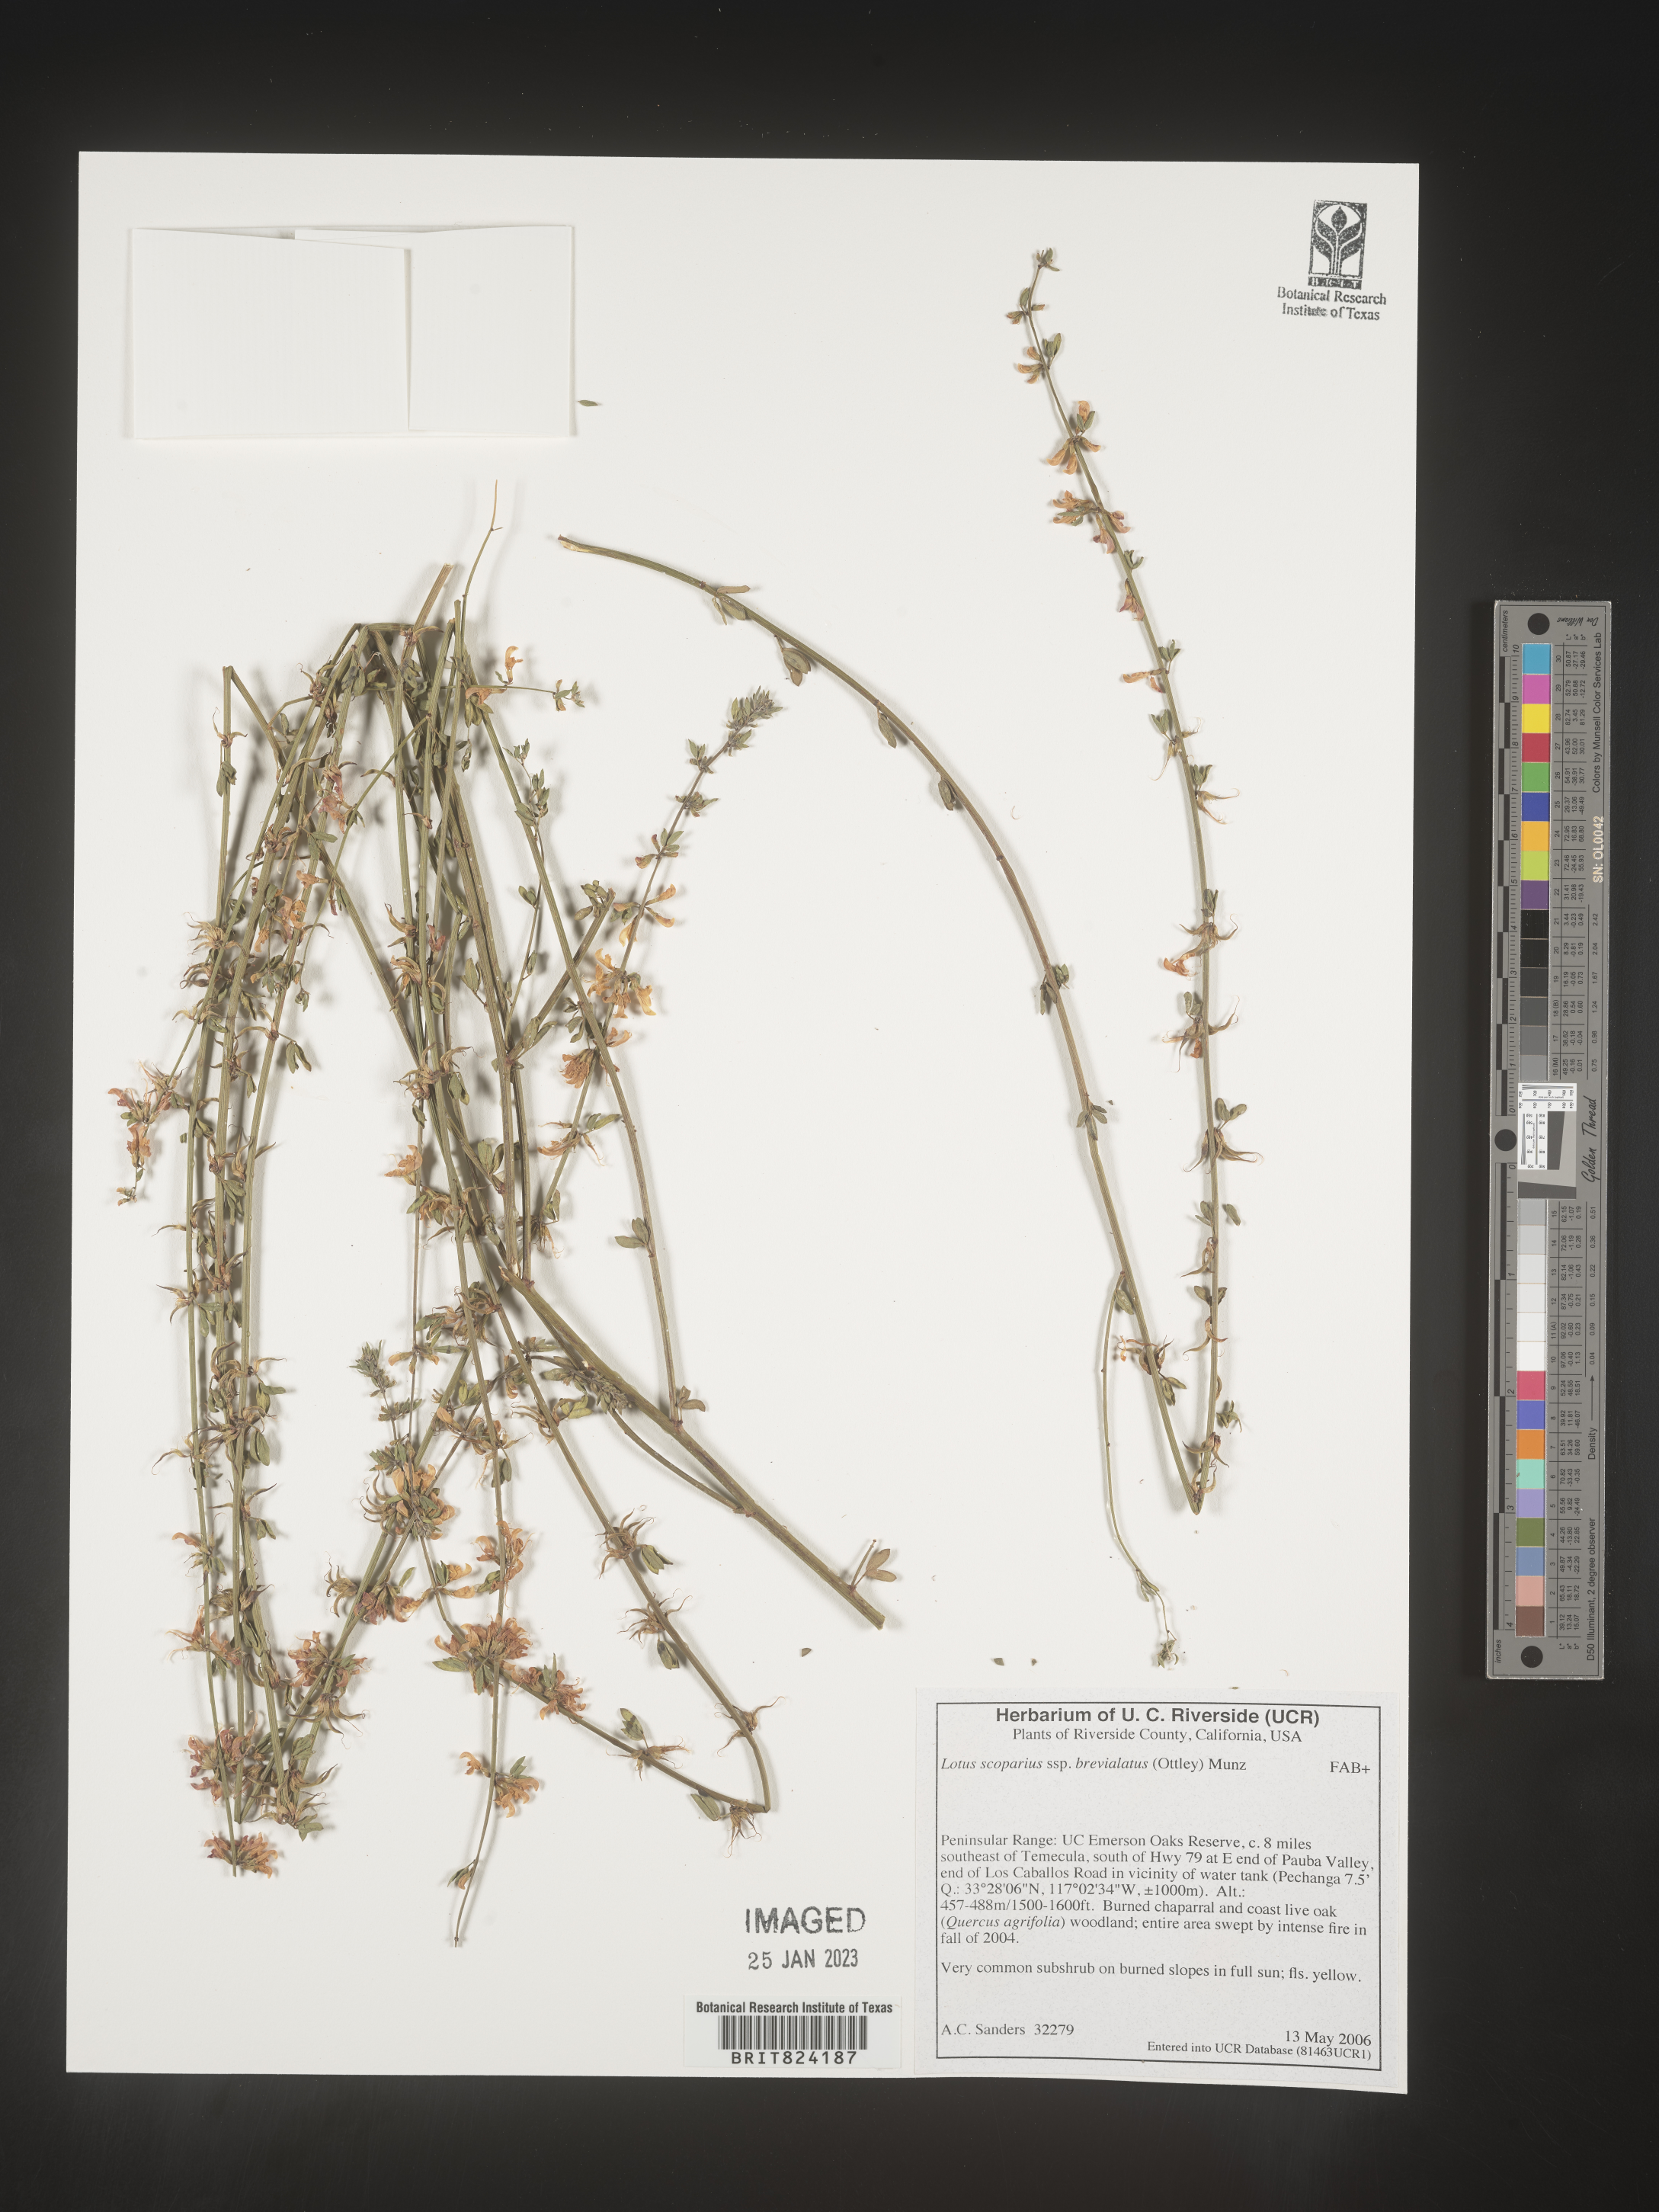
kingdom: Plantae
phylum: Tracheophyta
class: Magnoliopsida
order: Fabales
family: Fabaceae
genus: Lotus
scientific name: Lotus
